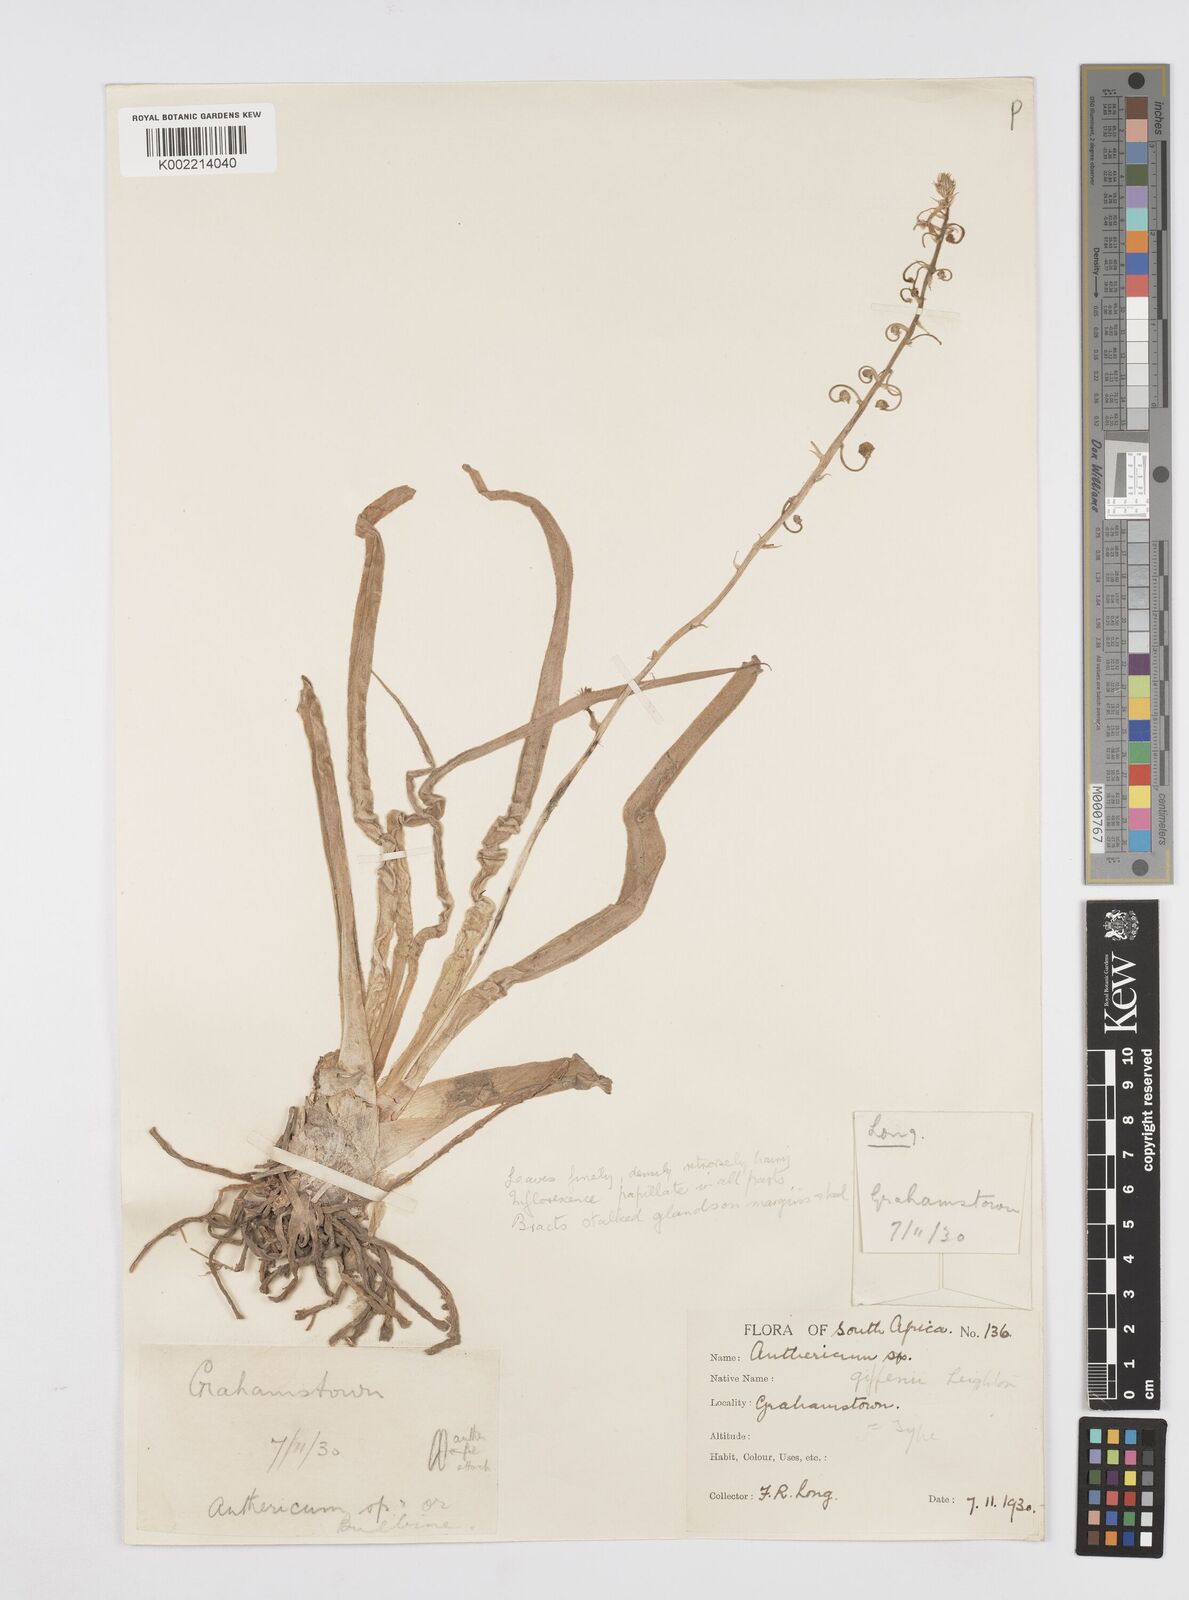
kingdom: Plantae
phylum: Tracheophyta
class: Liliopsida
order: Asparagales
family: Asphodelaceae
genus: Trachyandra
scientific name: Trachyandra giffenii
